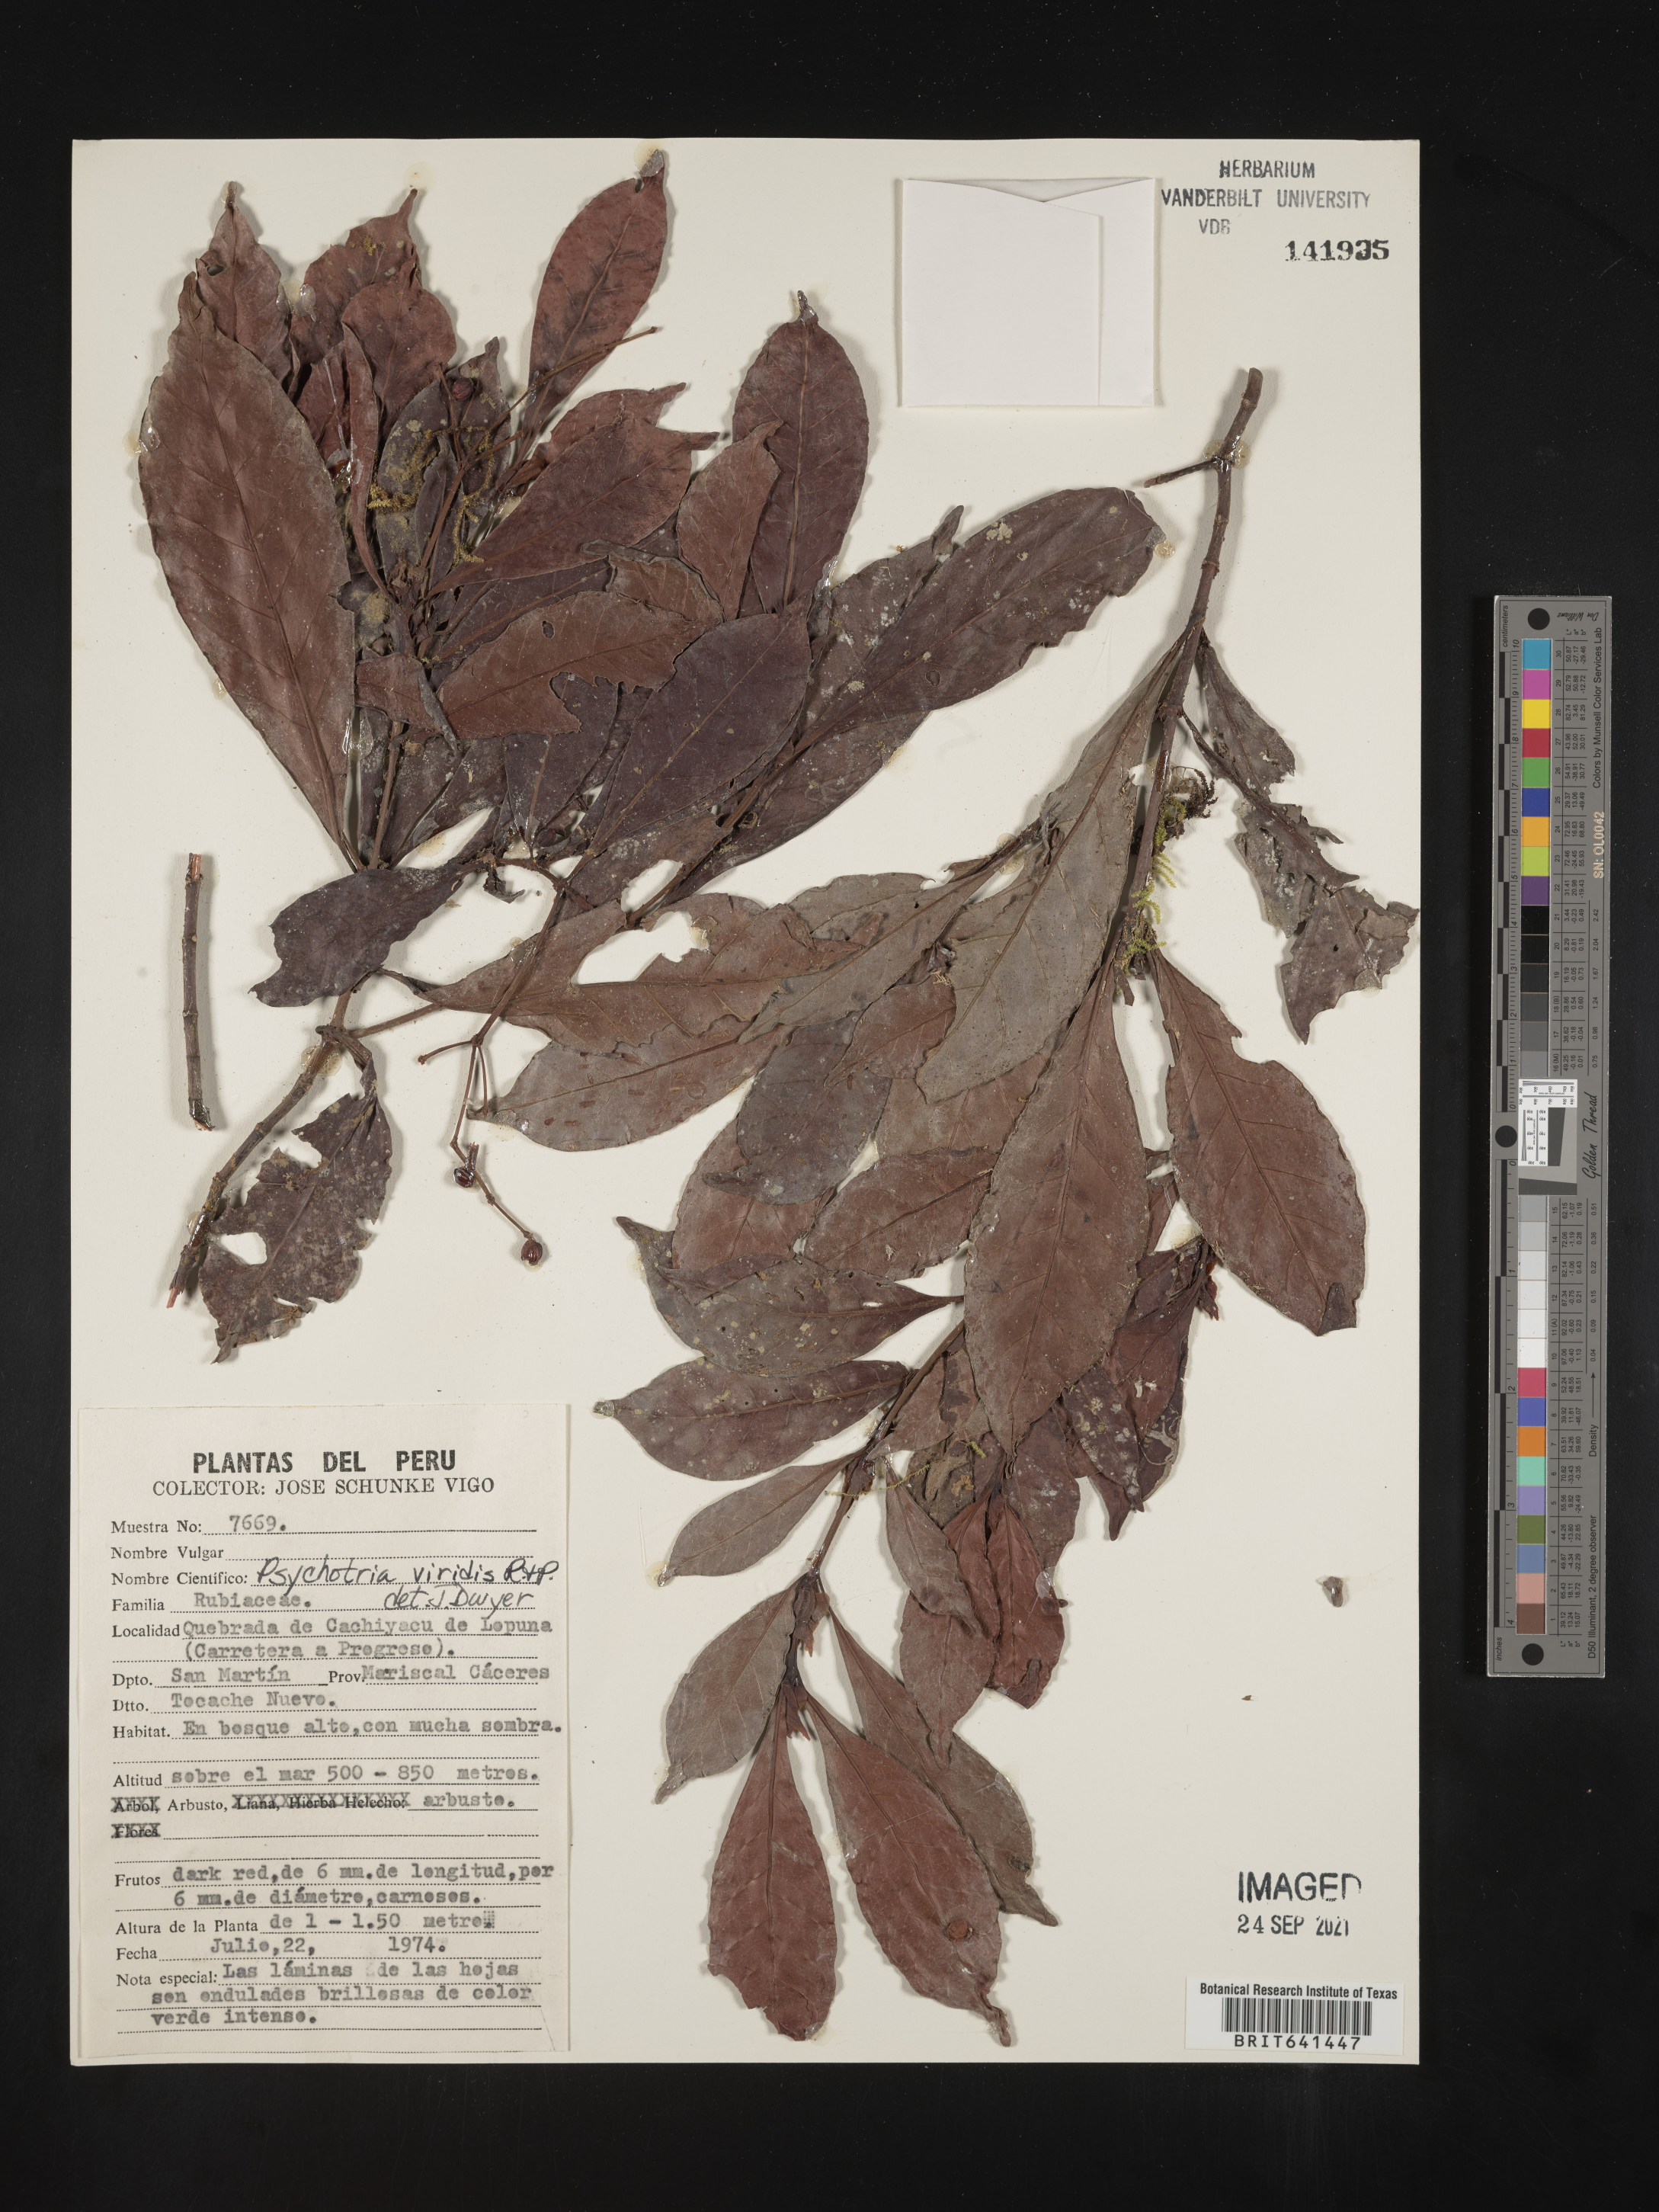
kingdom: Plantae
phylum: Tracheophyta
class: Magnoliopsida
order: Gentianales
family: Rubiaceae
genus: Psychotria
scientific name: Psychotria
